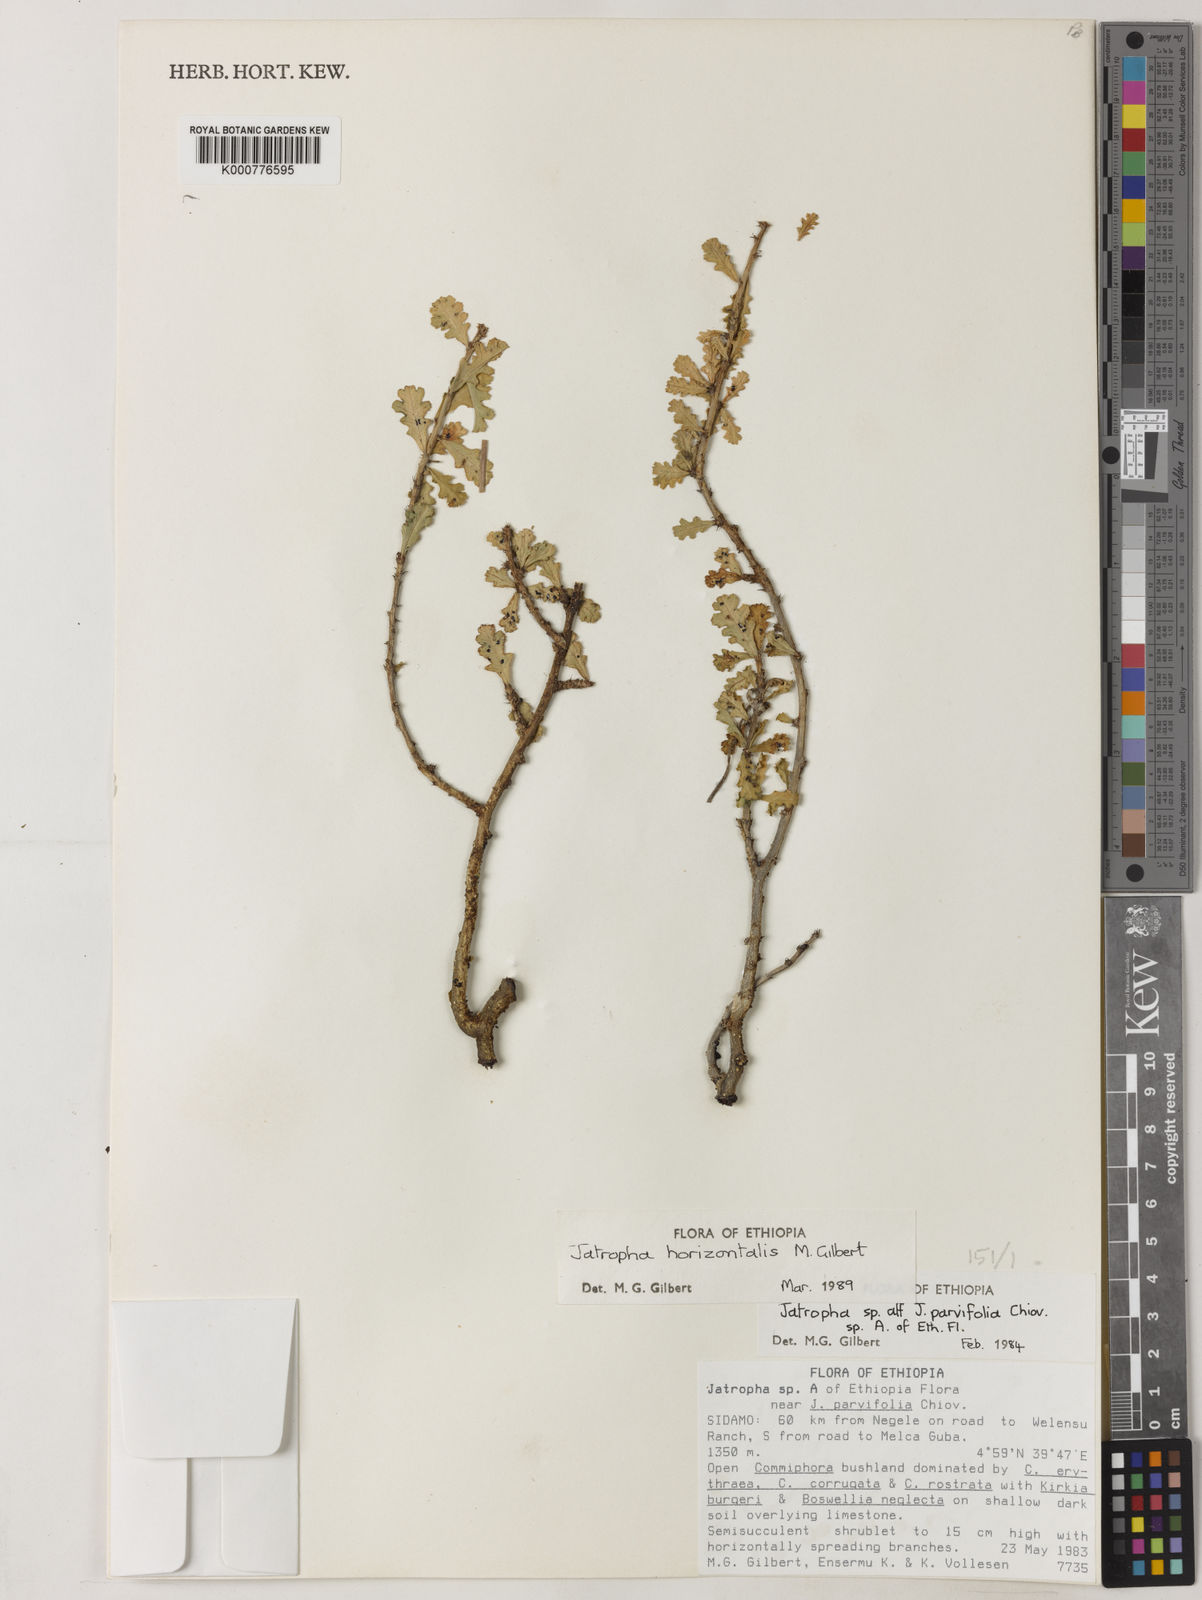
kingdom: Plantae
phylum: Tracheophyta
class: Magnoliopsida
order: Malpighiales
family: Euphorbiaceae
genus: Jatropha
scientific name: Jatropha horizontalis
